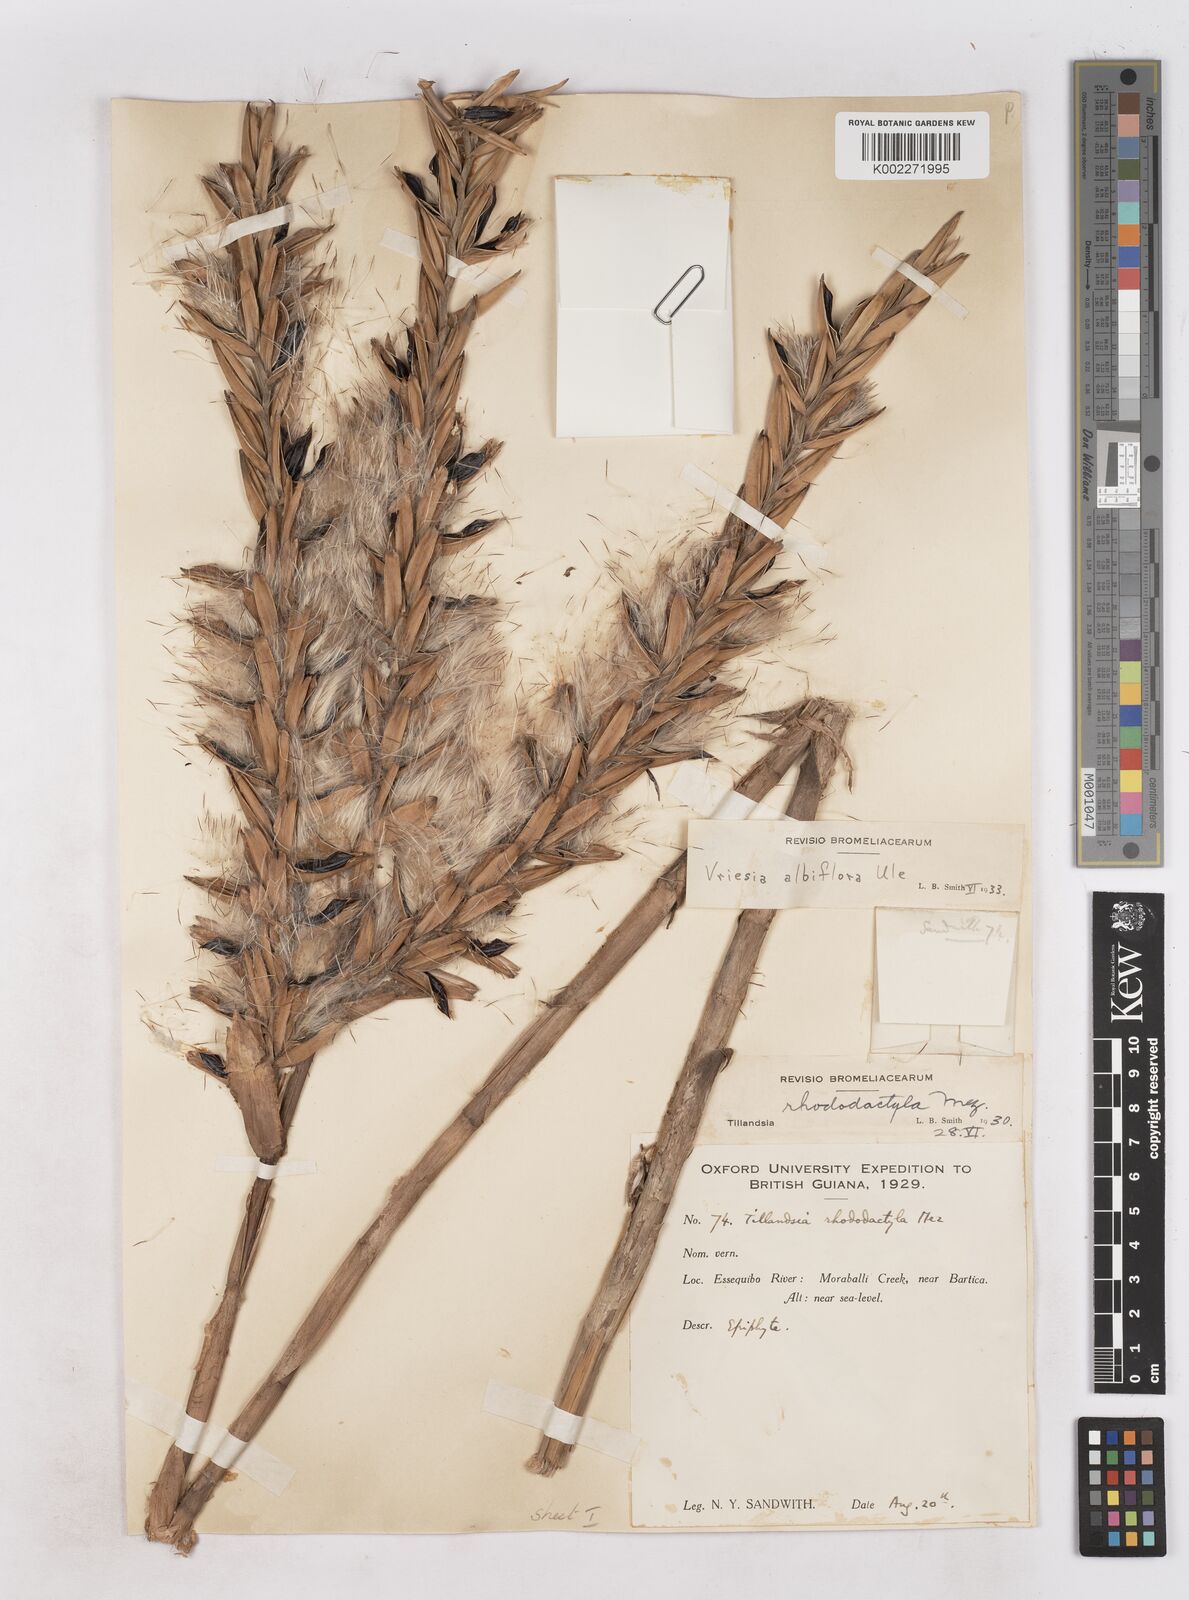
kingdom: Plantae
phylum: Tracheophyta
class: Liliopsida
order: Poales
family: Bromeliaceae
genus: Vriesea
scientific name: Vriesea rubra
